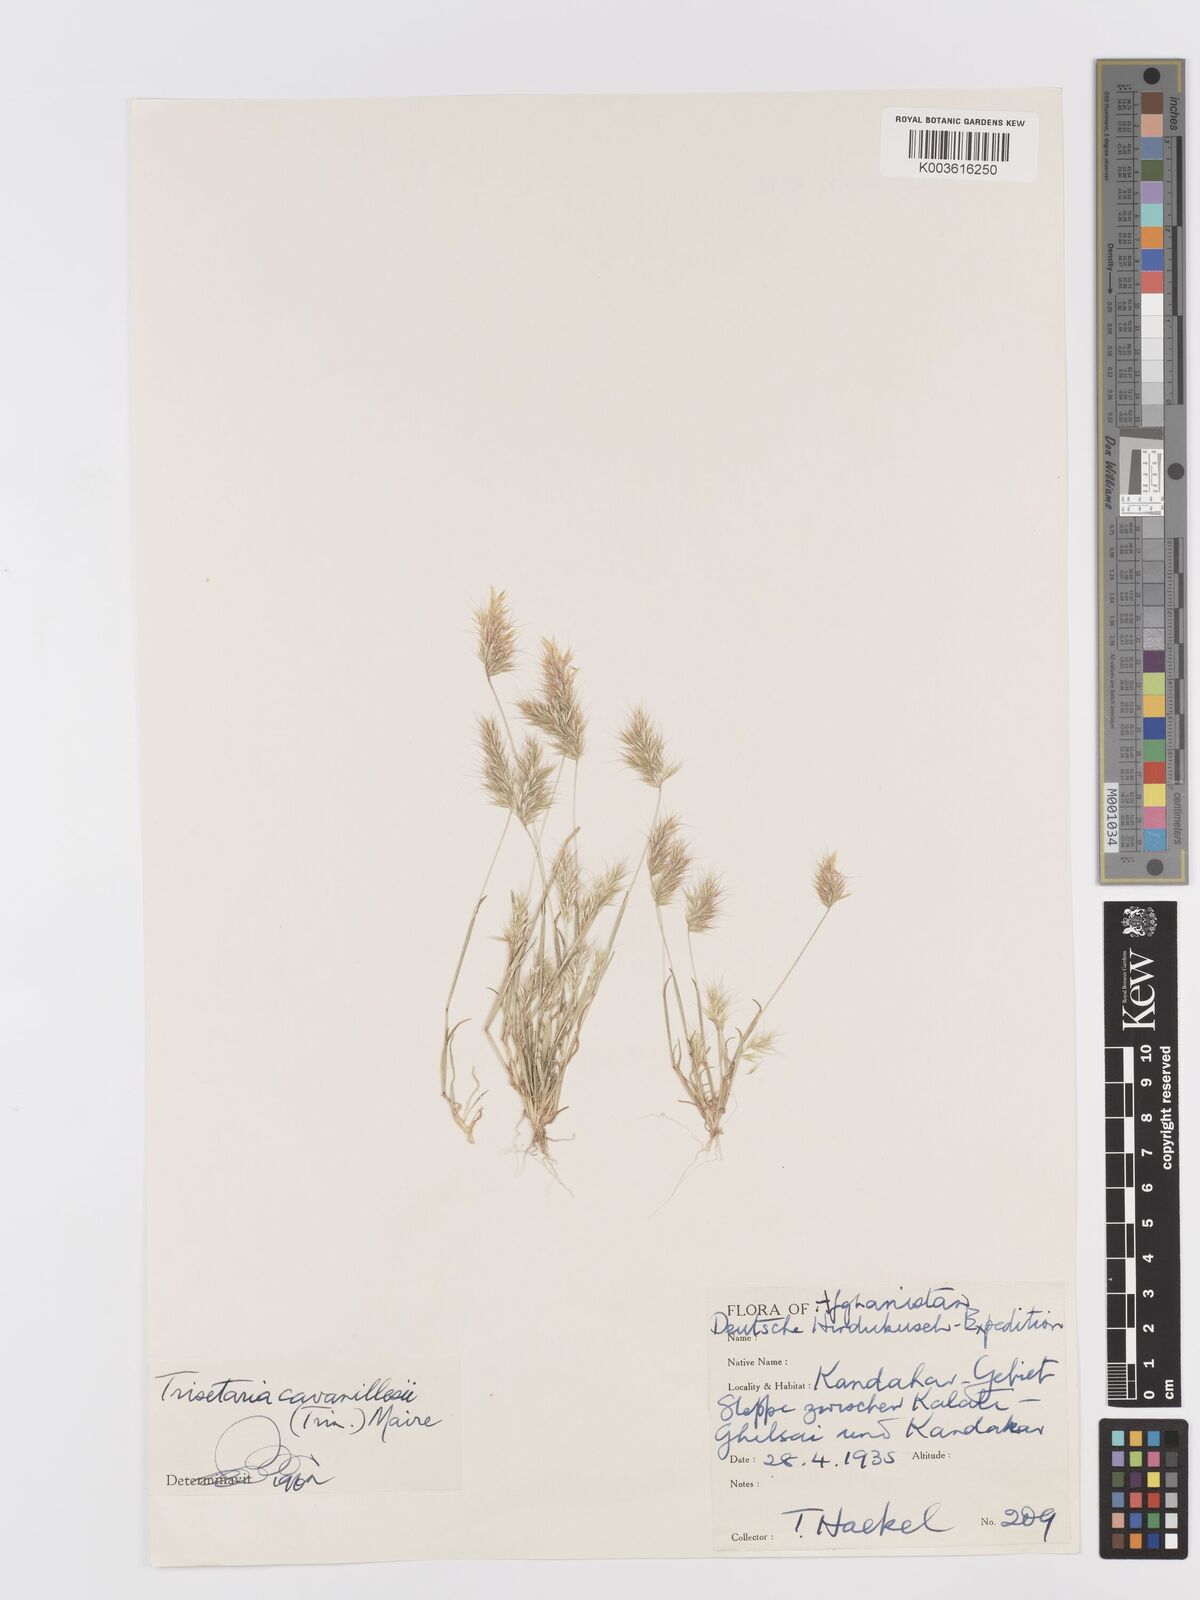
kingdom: Plantae
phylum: Tracheophyta
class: Liliopsida
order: Poales
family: Poaceae
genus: Trisetaria
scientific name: Trisetaria loeflingiana
